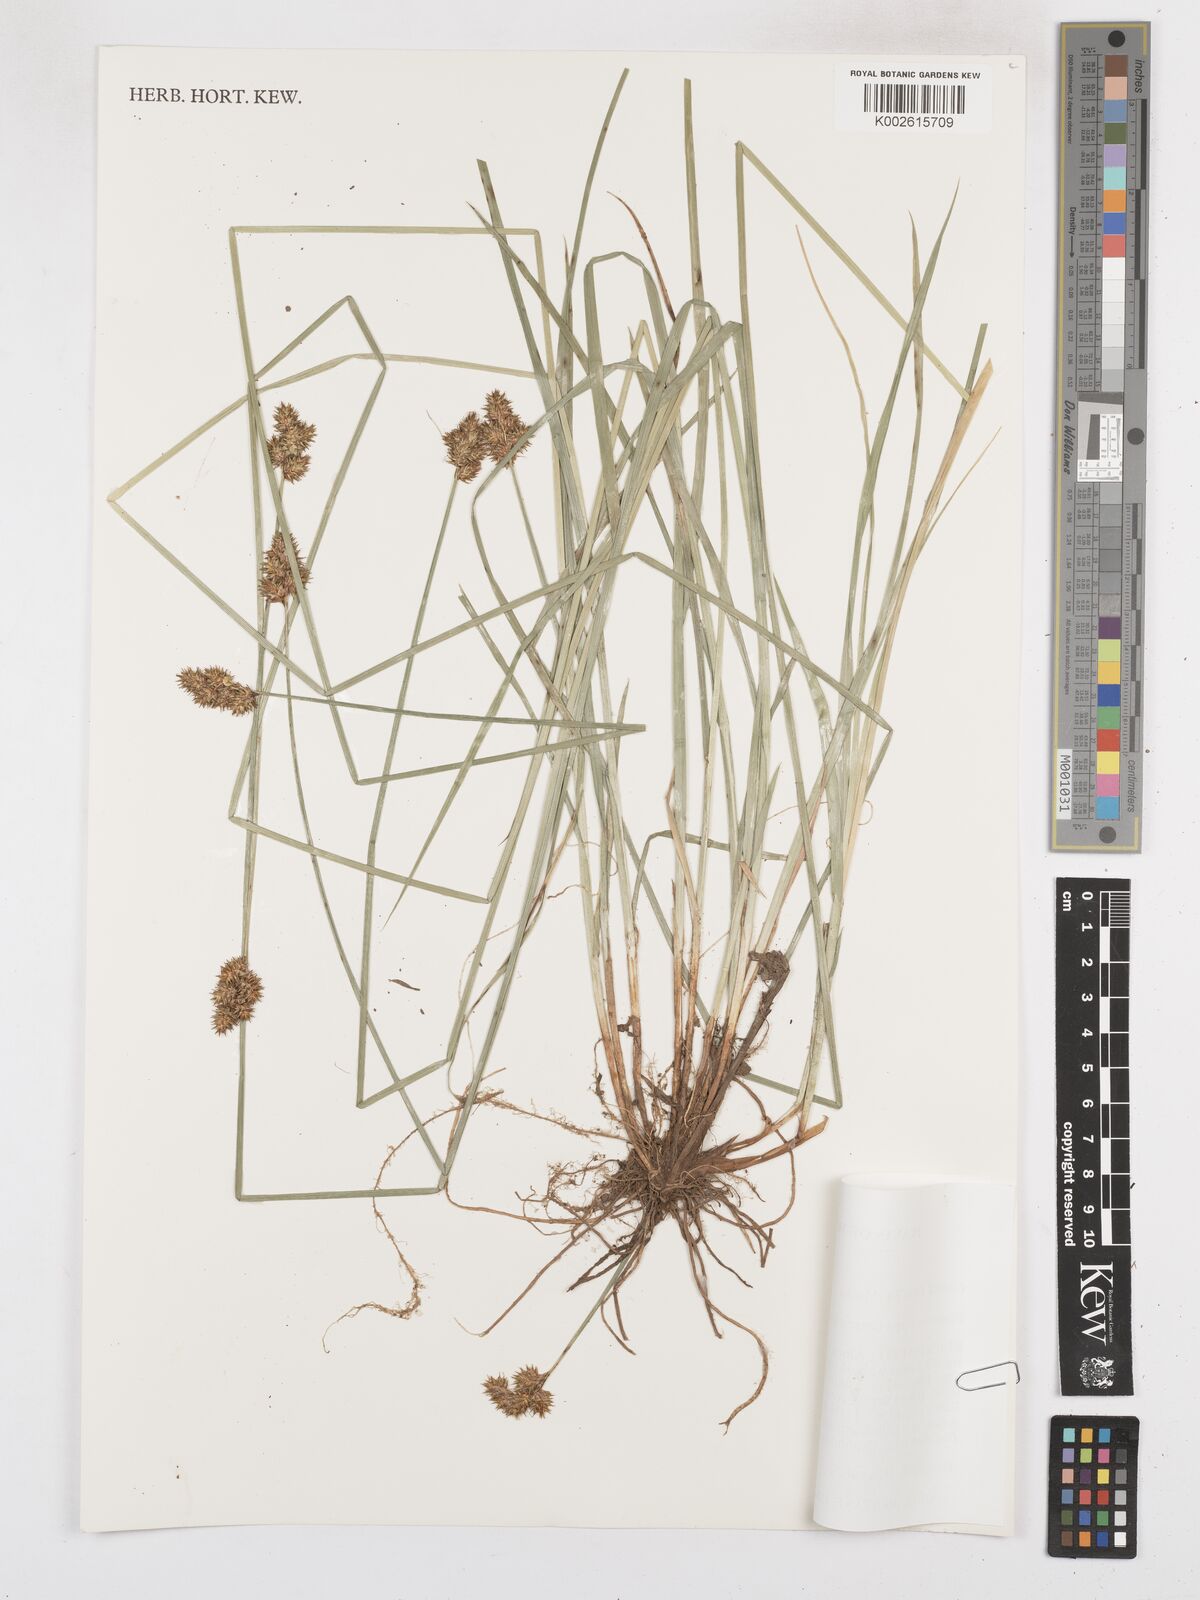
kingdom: Plantae
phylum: Tracheophyta
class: Liliopsida
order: Poales
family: Cyperaceae
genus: Carex
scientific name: Carex fracta
